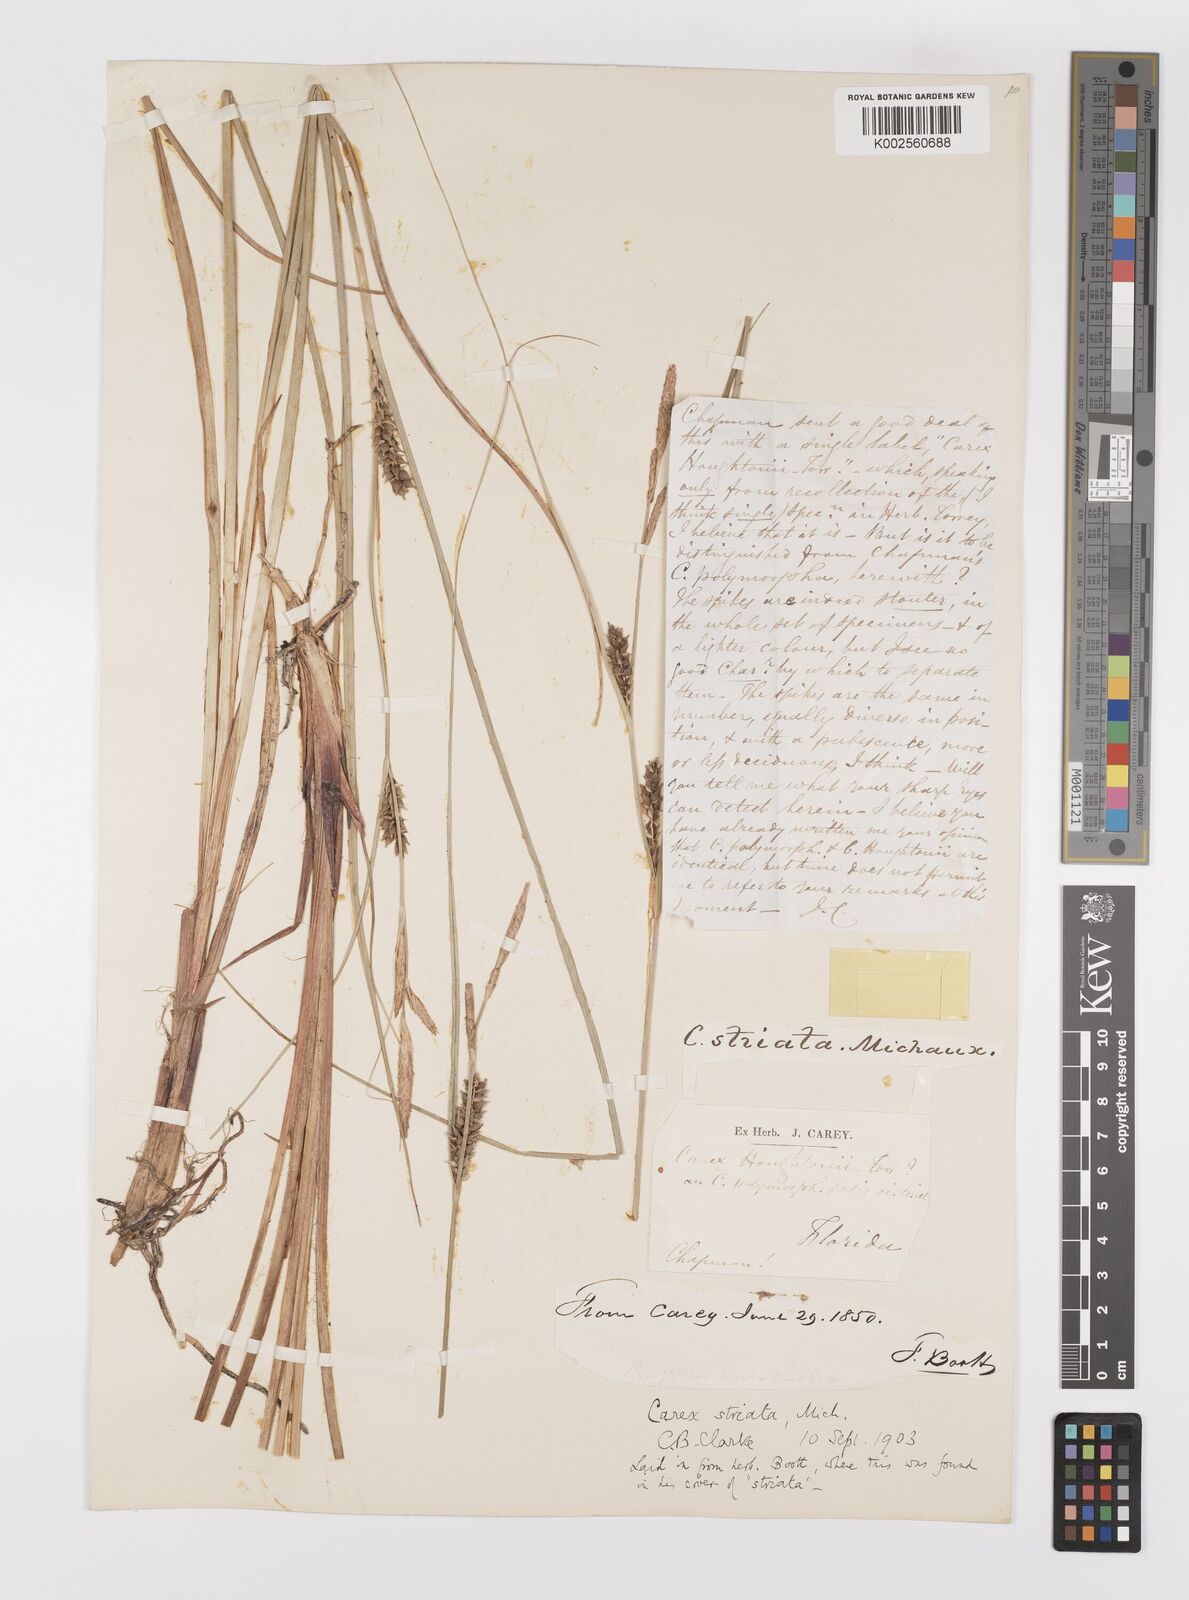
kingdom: Plantae
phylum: Tracheophyta
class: Liliopsida
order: Poales
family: Cyperaceae
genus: Carex
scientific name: Carex striata
